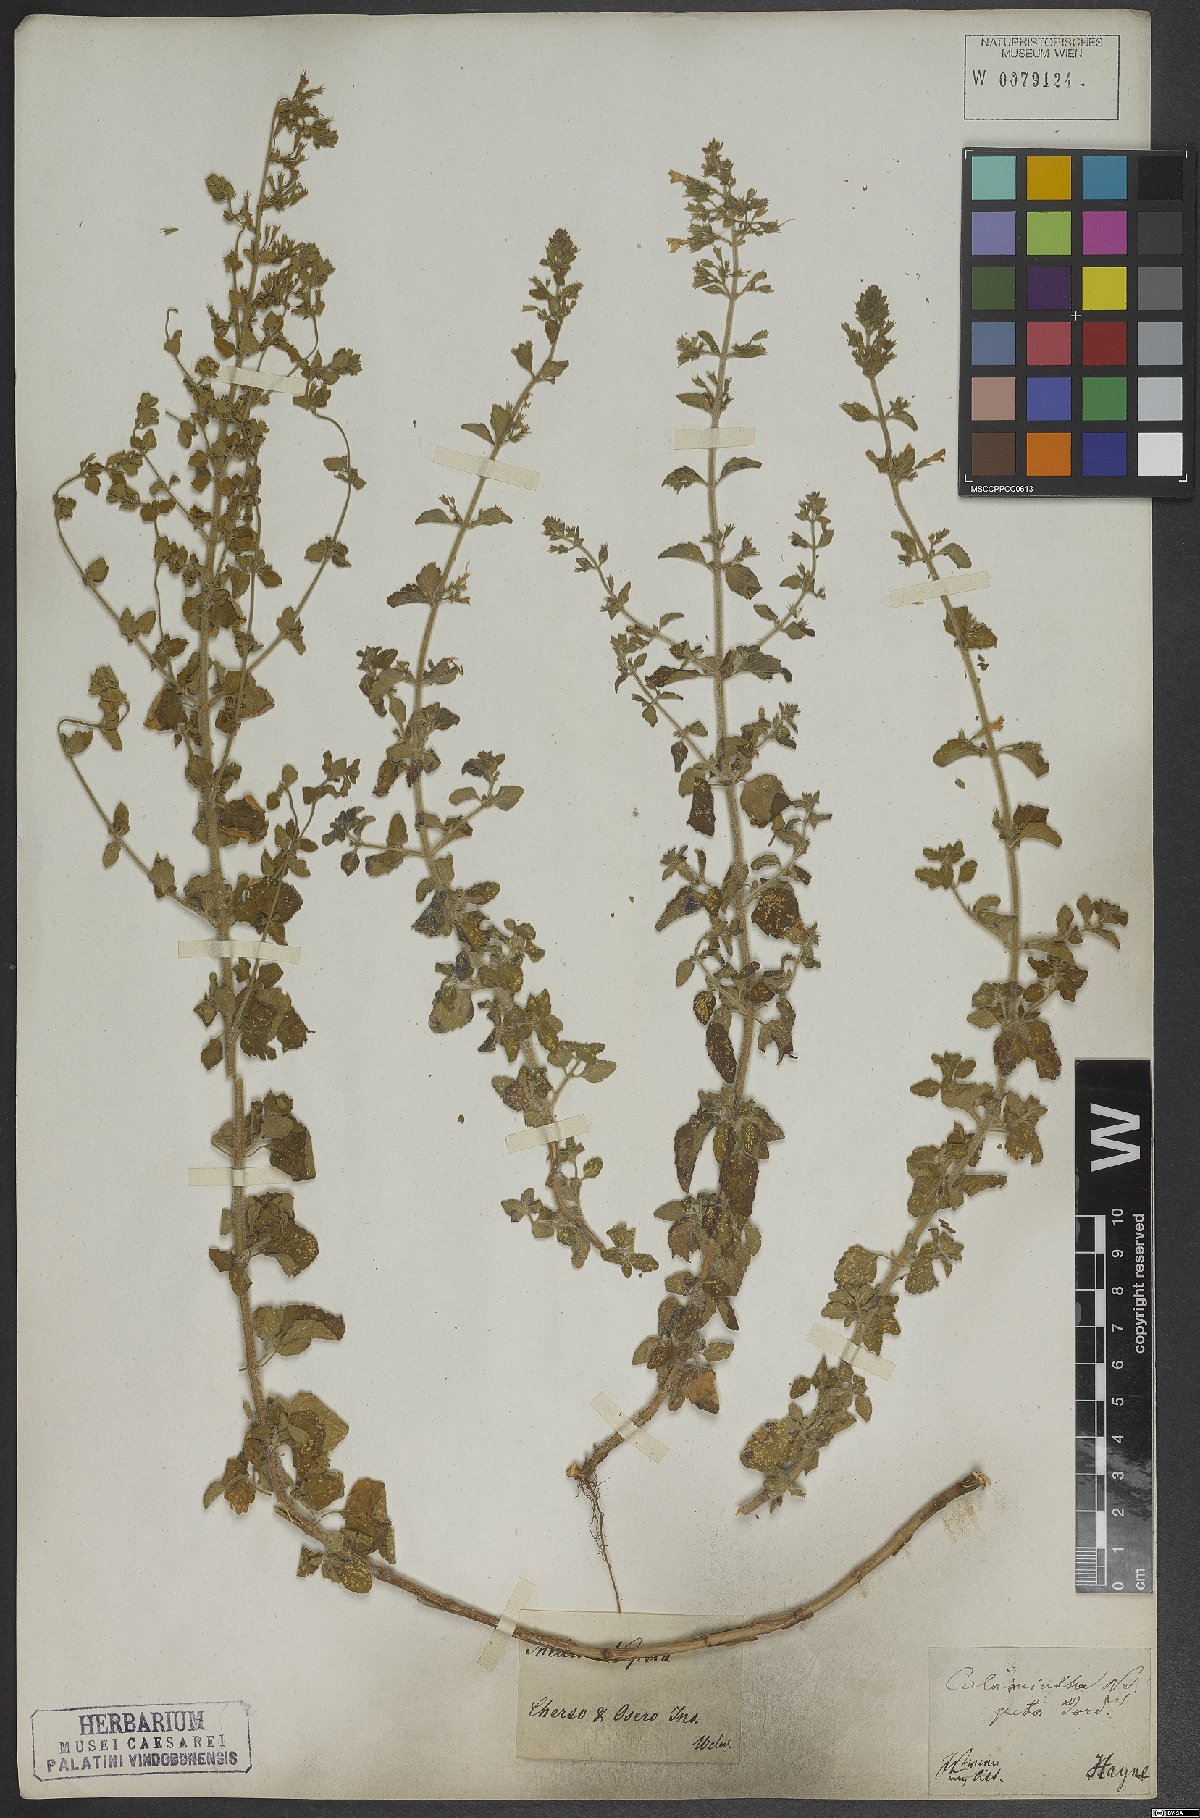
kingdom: Plantae
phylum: Tracheophyta
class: Magnoliopsida
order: Lamiales
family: Lamiaceae
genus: Clinopodium
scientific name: Clinopodium nepeta
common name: Lesser calamint
